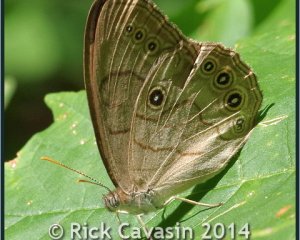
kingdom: Animalia
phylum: Arthropoda
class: Insecta
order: Lepidoptera
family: Nymphalidae
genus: Lethe
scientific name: Lethe eurydice
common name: Appalachian Eyed Brown
